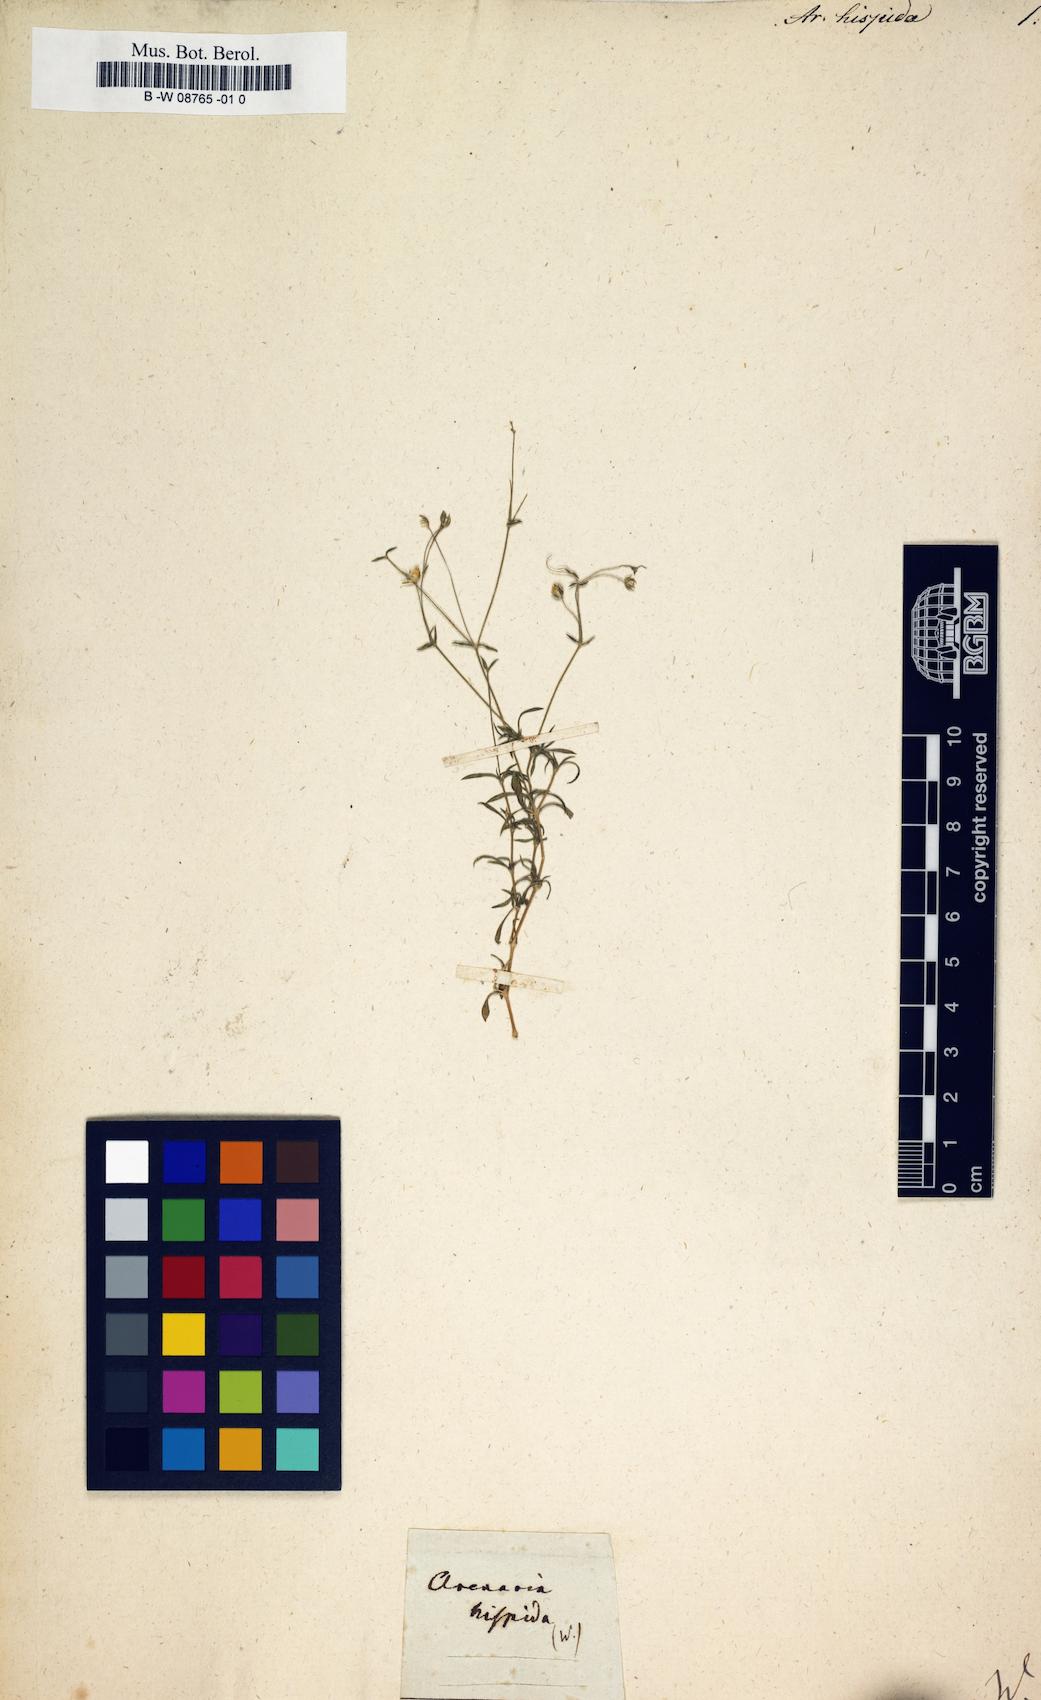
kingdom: Plantae
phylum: Tracheophyta
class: Magnoliopsida
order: Caryophyllales
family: Caryophyllaceae
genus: Arenaria
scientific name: Arenaria hispida
